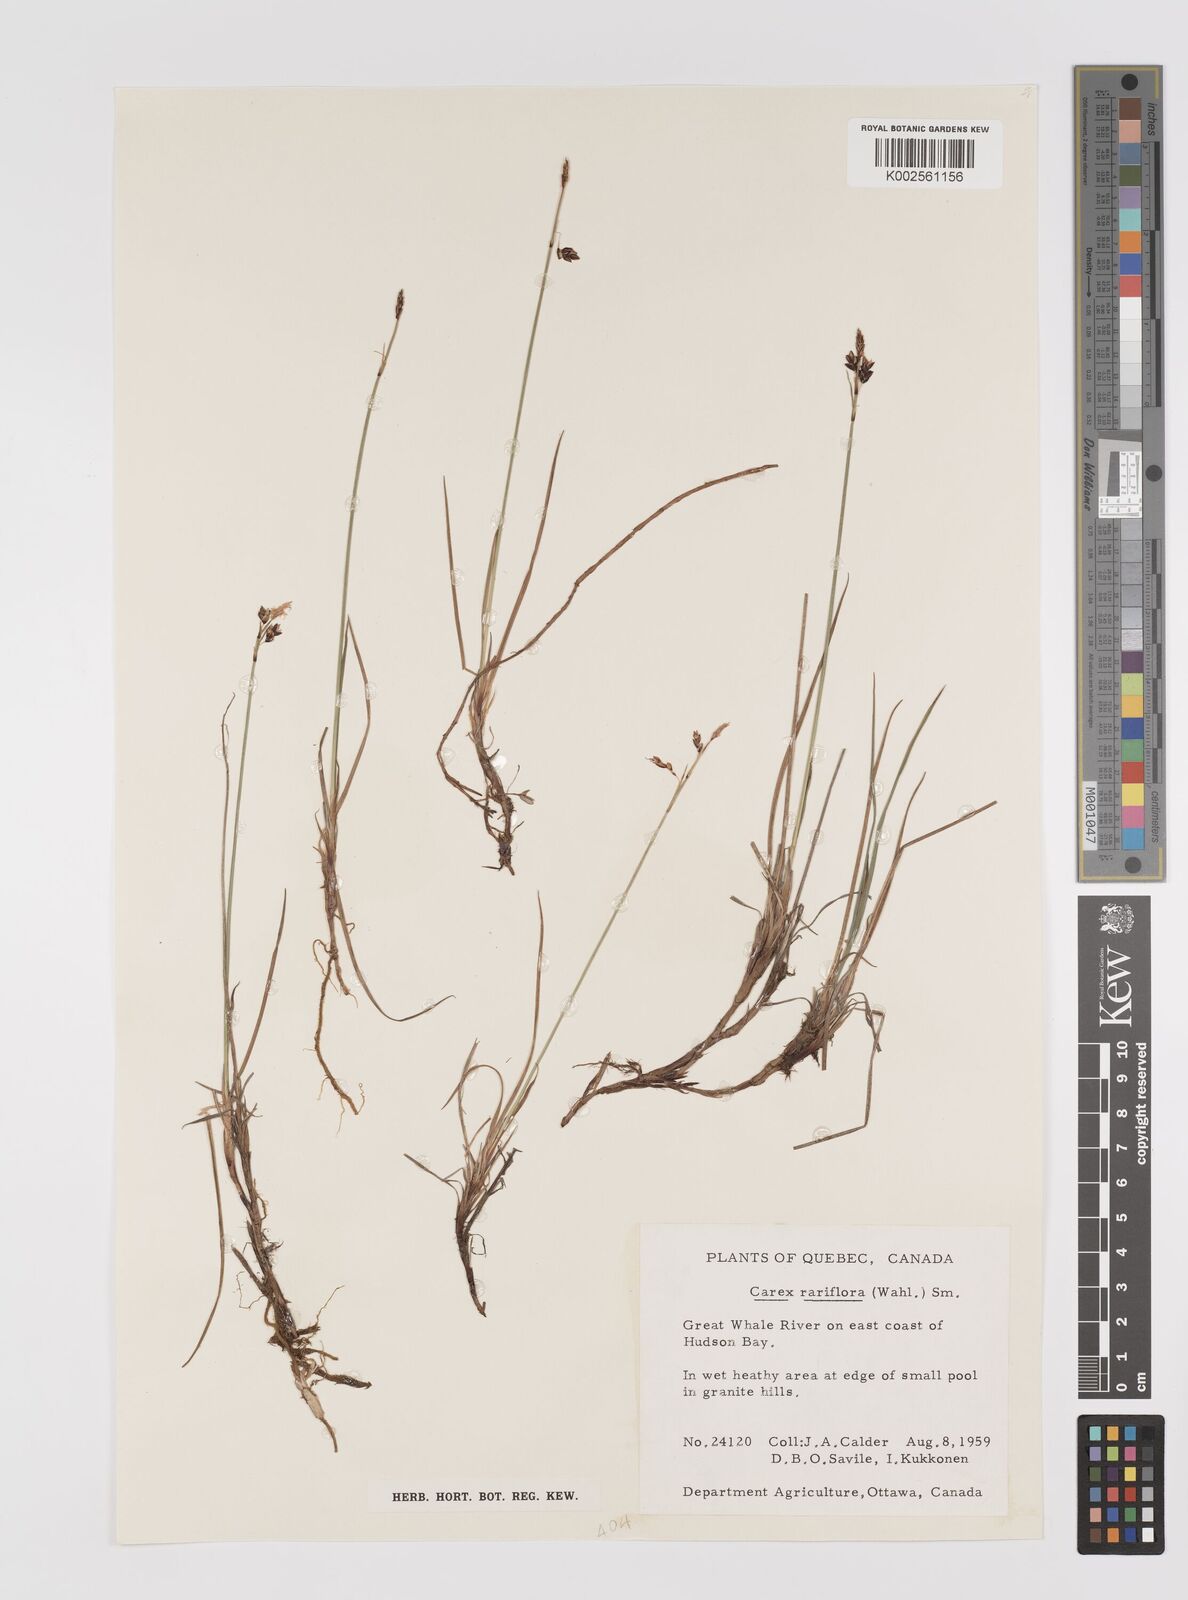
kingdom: Plantae
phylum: Tracheophyta
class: Liliopsida
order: Poales
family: Cyperaceae
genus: Carex
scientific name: Carex rariflora
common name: Loose-flowered alpine sedge
